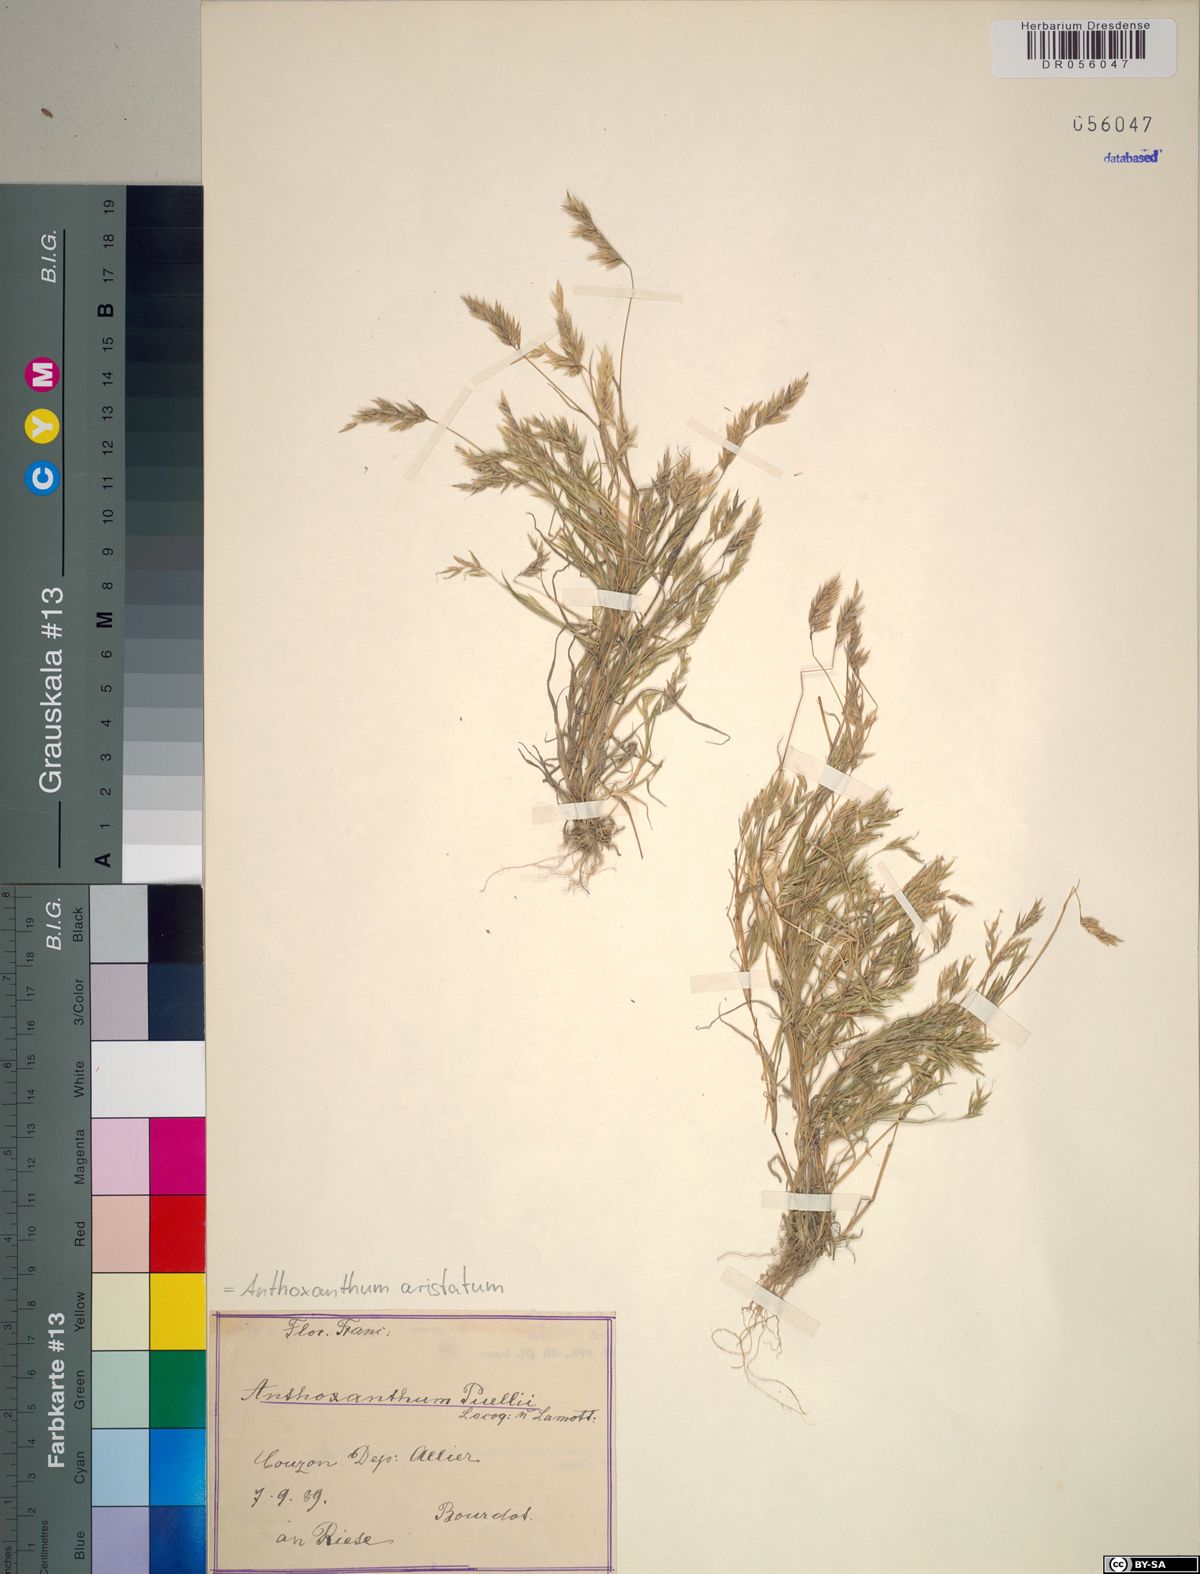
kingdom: Plantae
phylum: Tracheophyta
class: Liliopsida
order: Poales
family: Poaceae
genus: Anthoxanthum
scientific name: Anthoxanthum aristatum
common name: Annual vernal-grass
